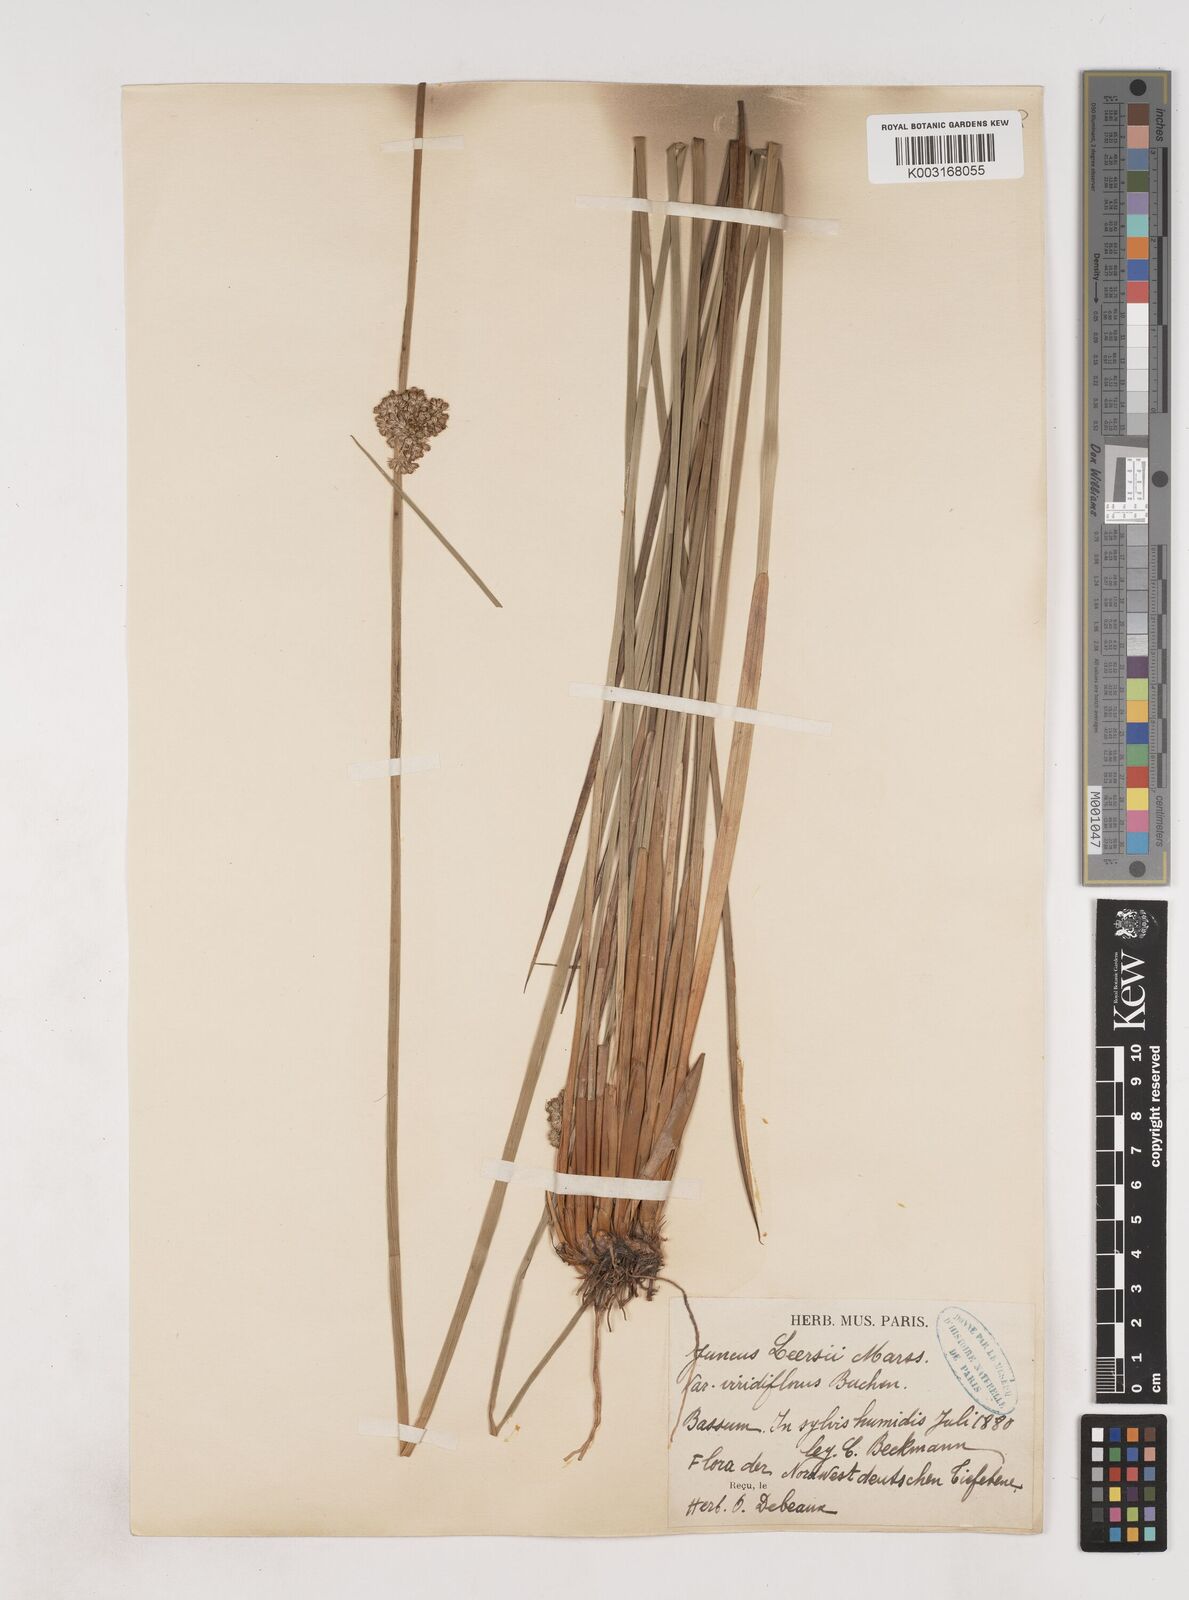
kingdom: Plantae
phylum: Tracheophyta
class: Liliopsida
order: Poales
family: Juncaceae
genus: Juncus
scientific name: Juncus conglomeratus
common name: Compact rush
